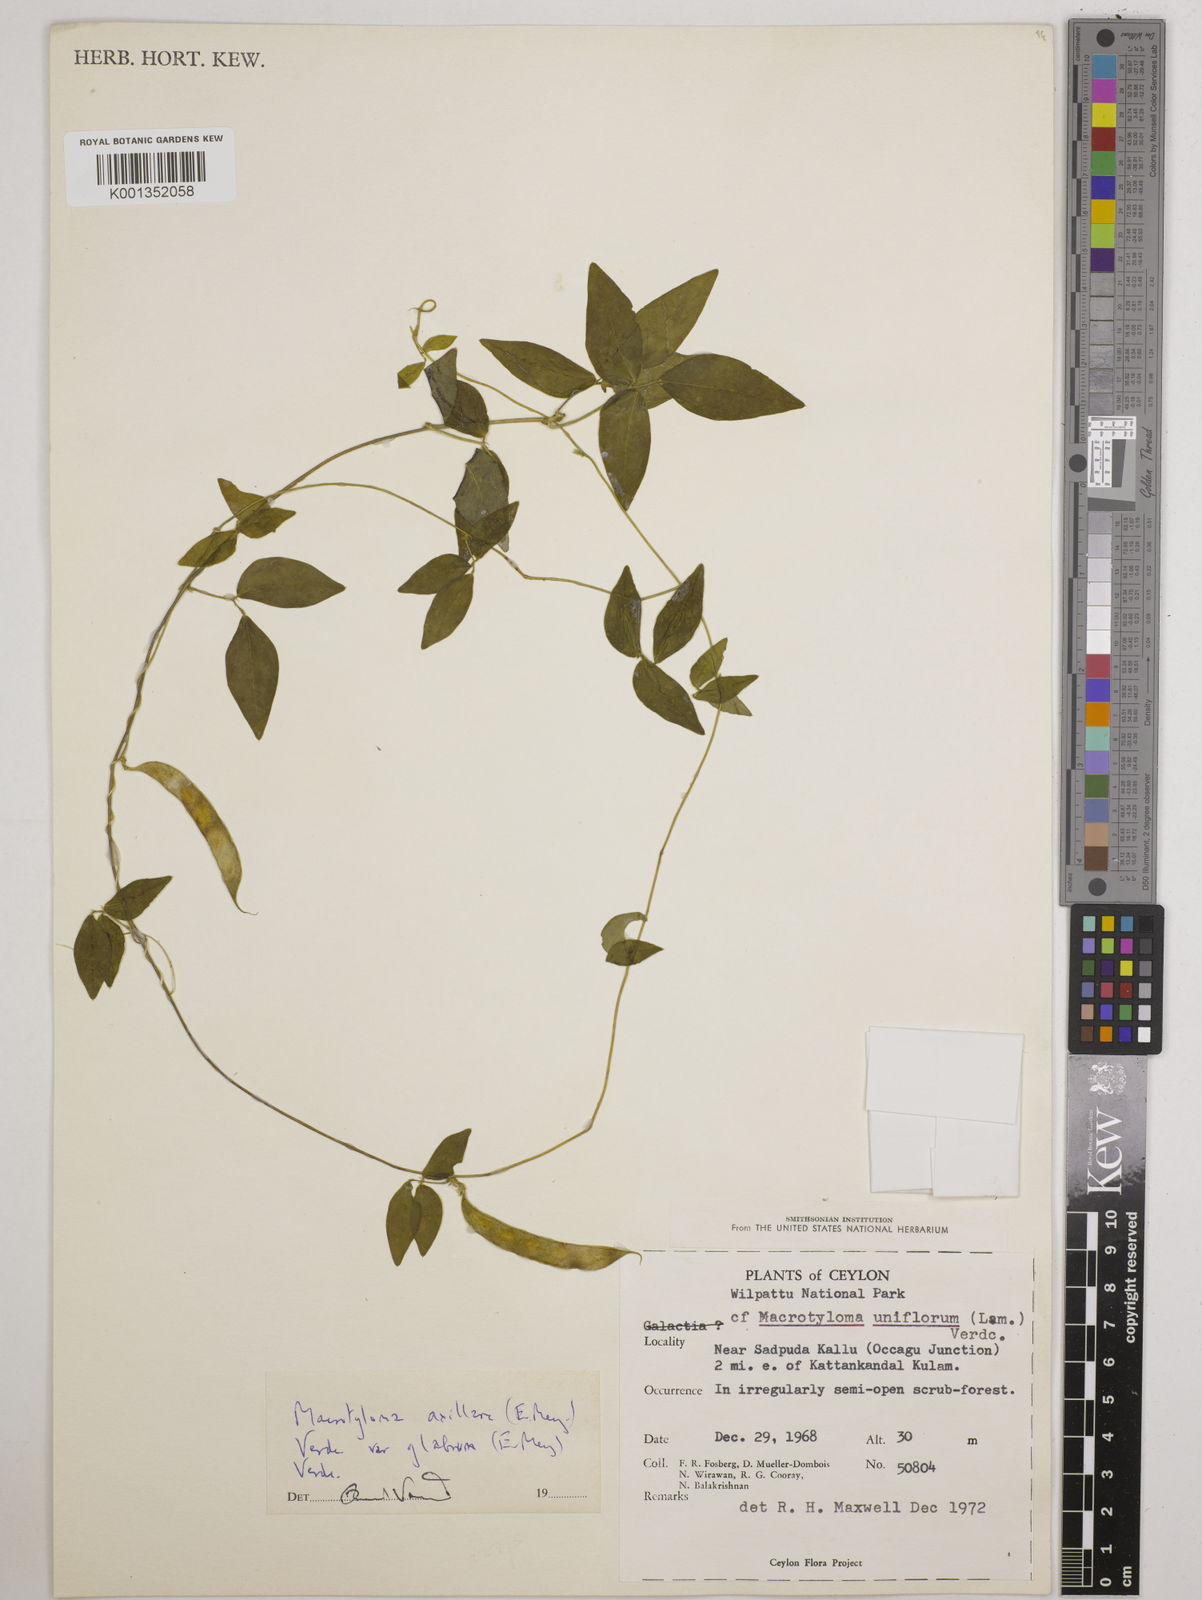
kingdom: Plantae
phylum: Tracheophyta
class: Magnoliopsida
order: Fabales
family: Fabaceae
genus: Macrotyloma
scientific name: Macrotyloma
